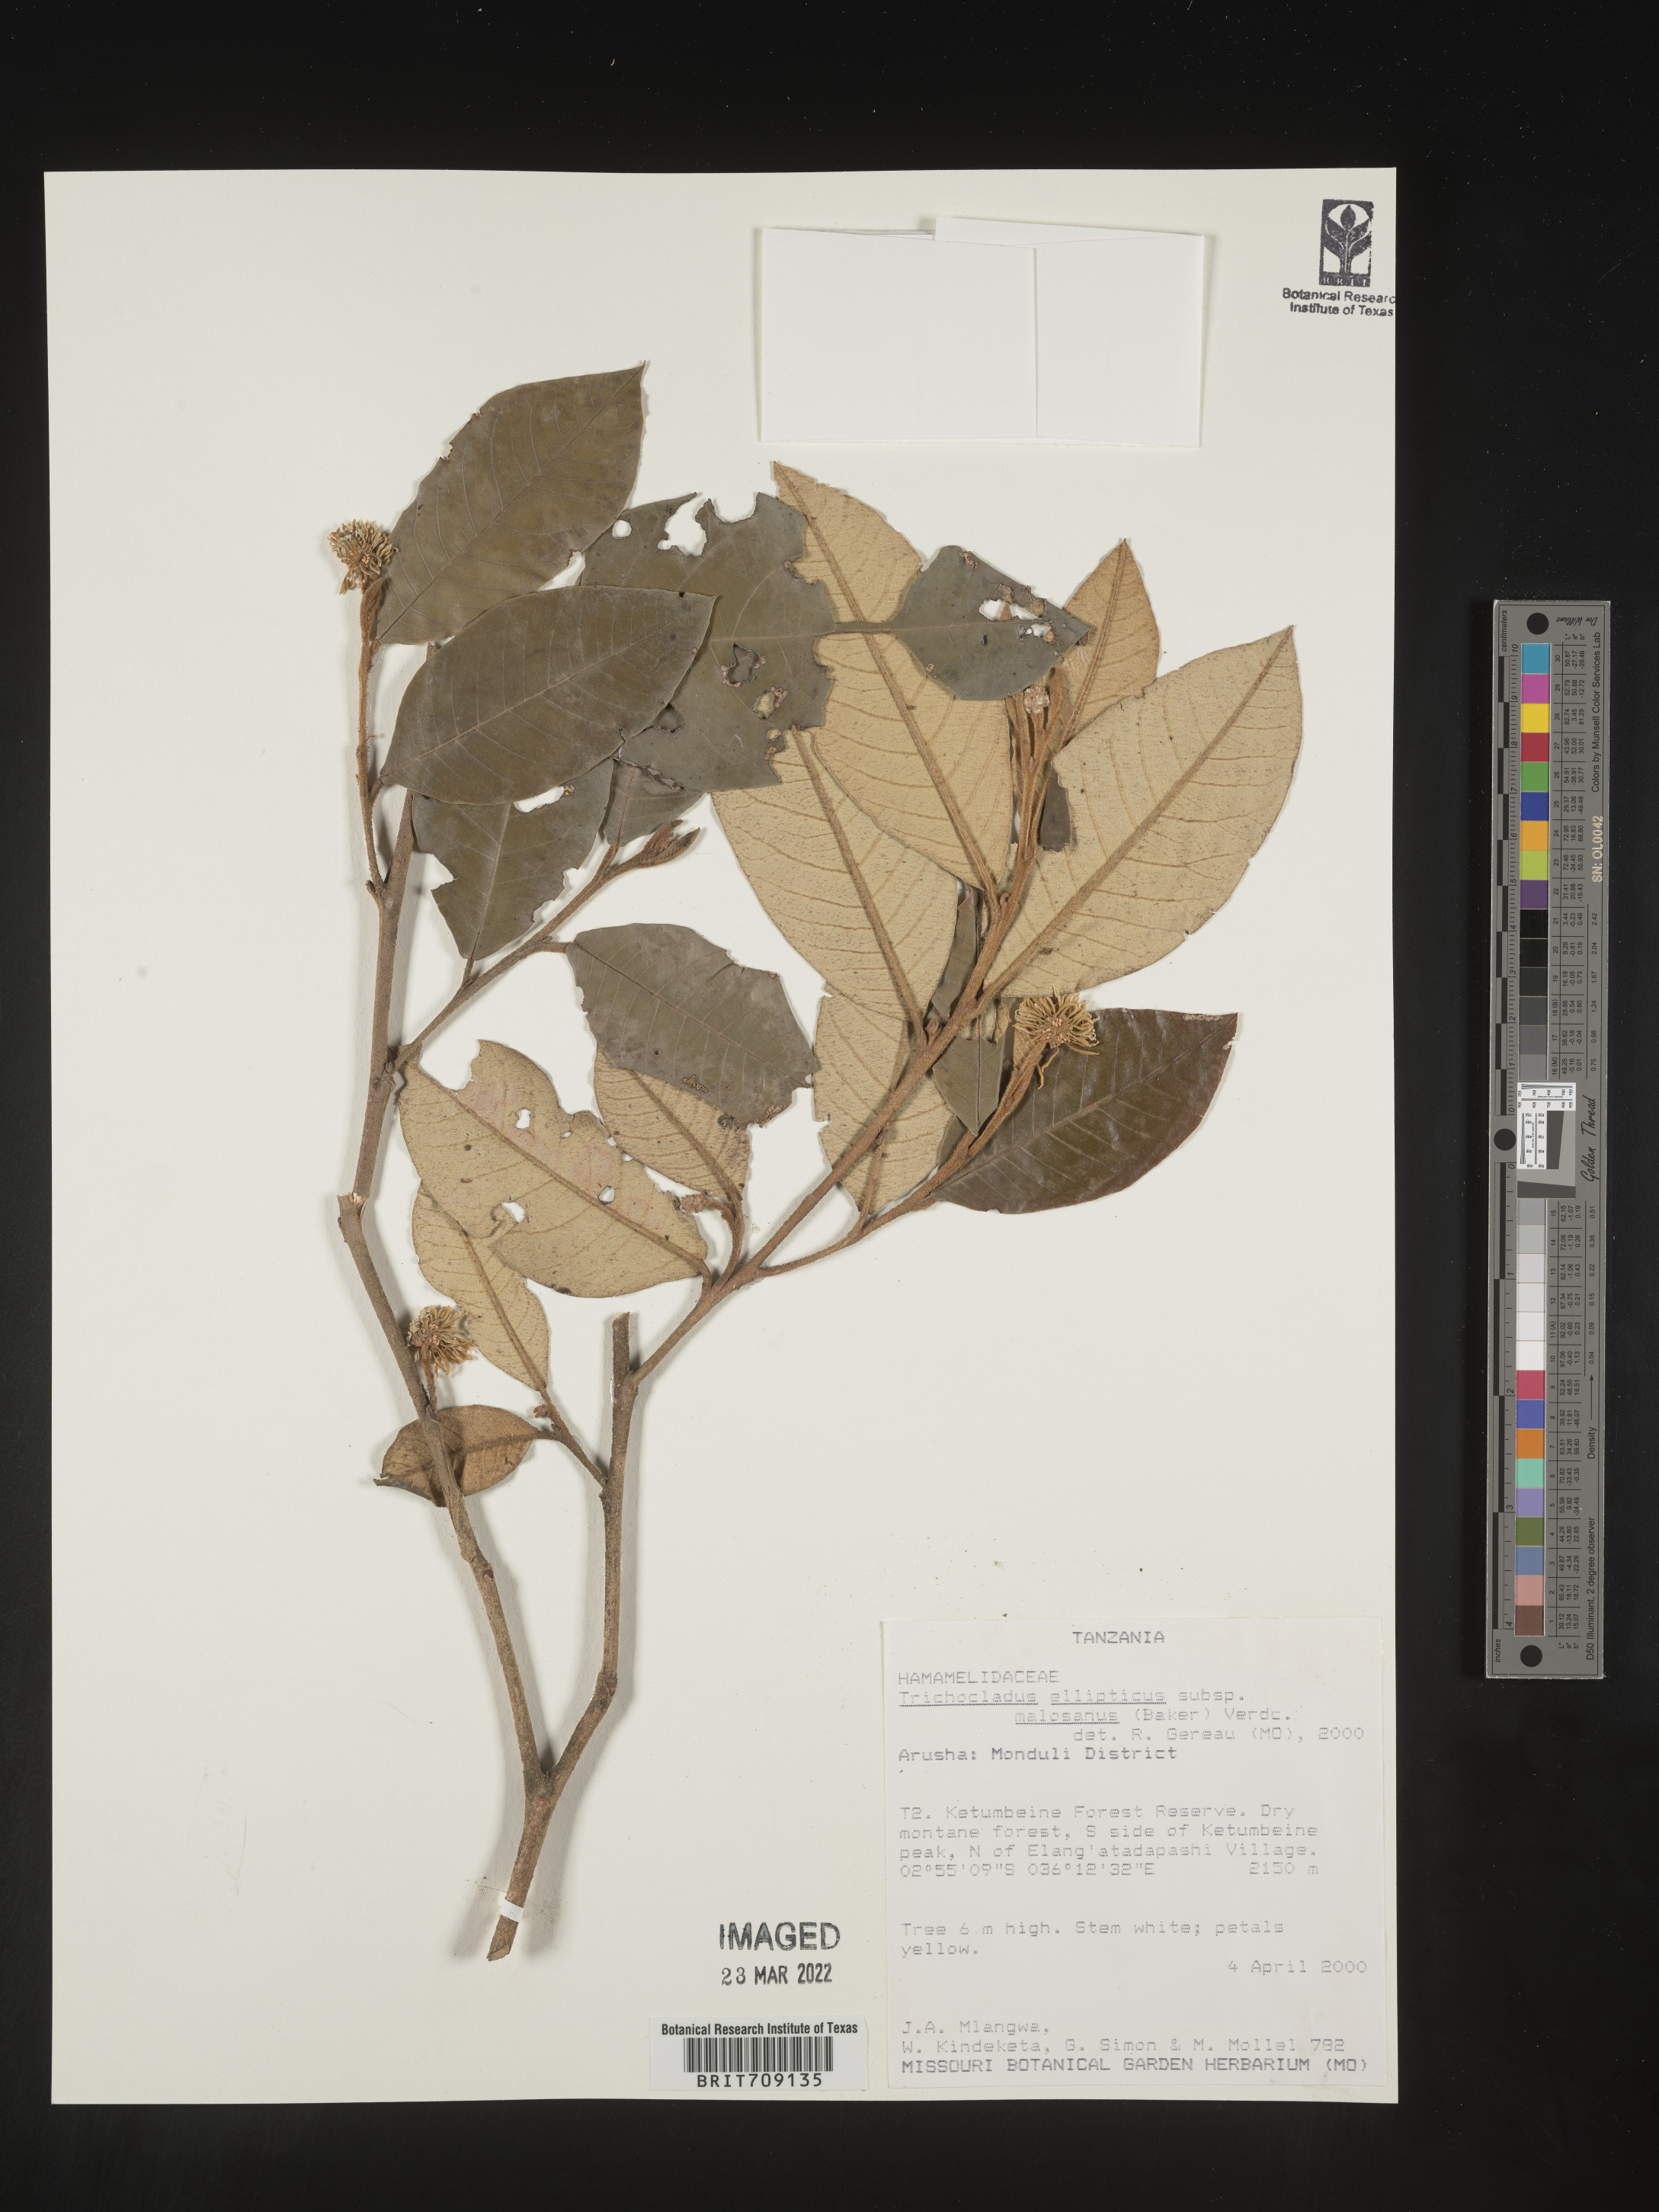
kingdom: Plantae
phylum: Tracheophyta
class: Magnoliopsida
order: Saxifragales
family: Hamamelidaceae
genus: Trichocladus
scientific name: Trichocladus
